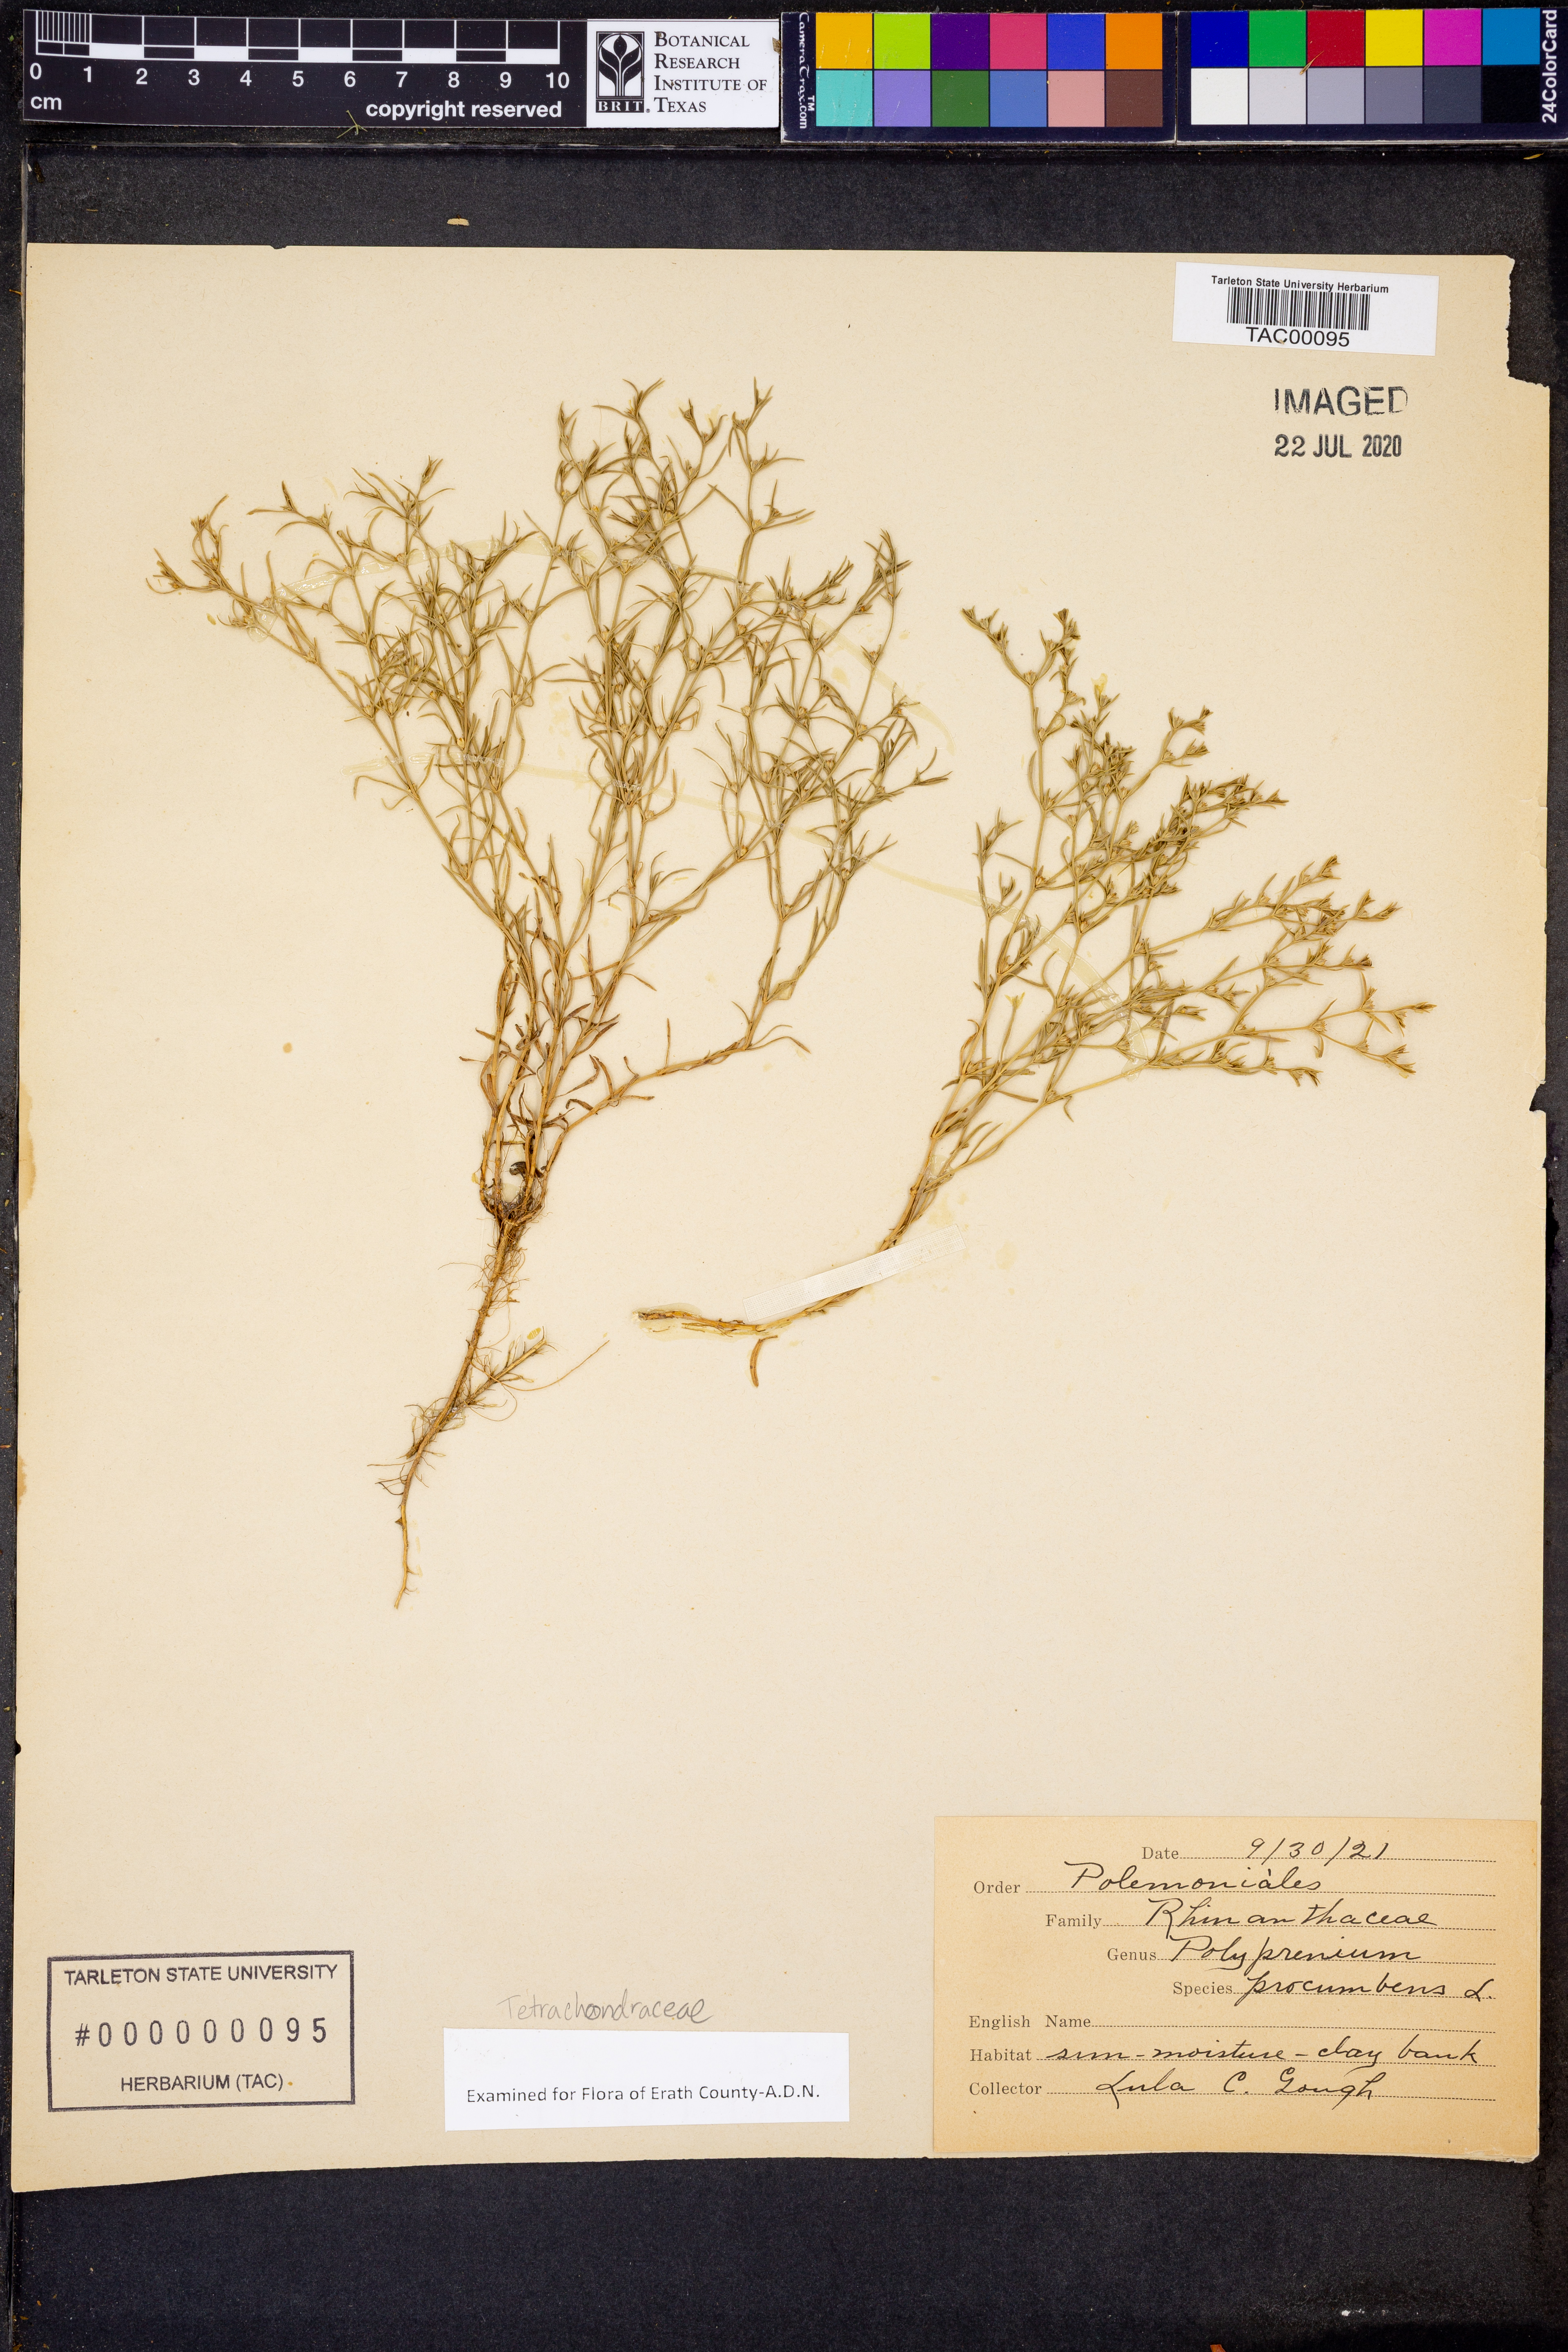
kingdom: Plantae
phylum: Tracheophyta
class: Magnoliopsida
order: Lamiales
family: Tetrachondraceae
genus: Polypremum
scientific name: Polypremum procumbens
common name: Juniper-leaf
